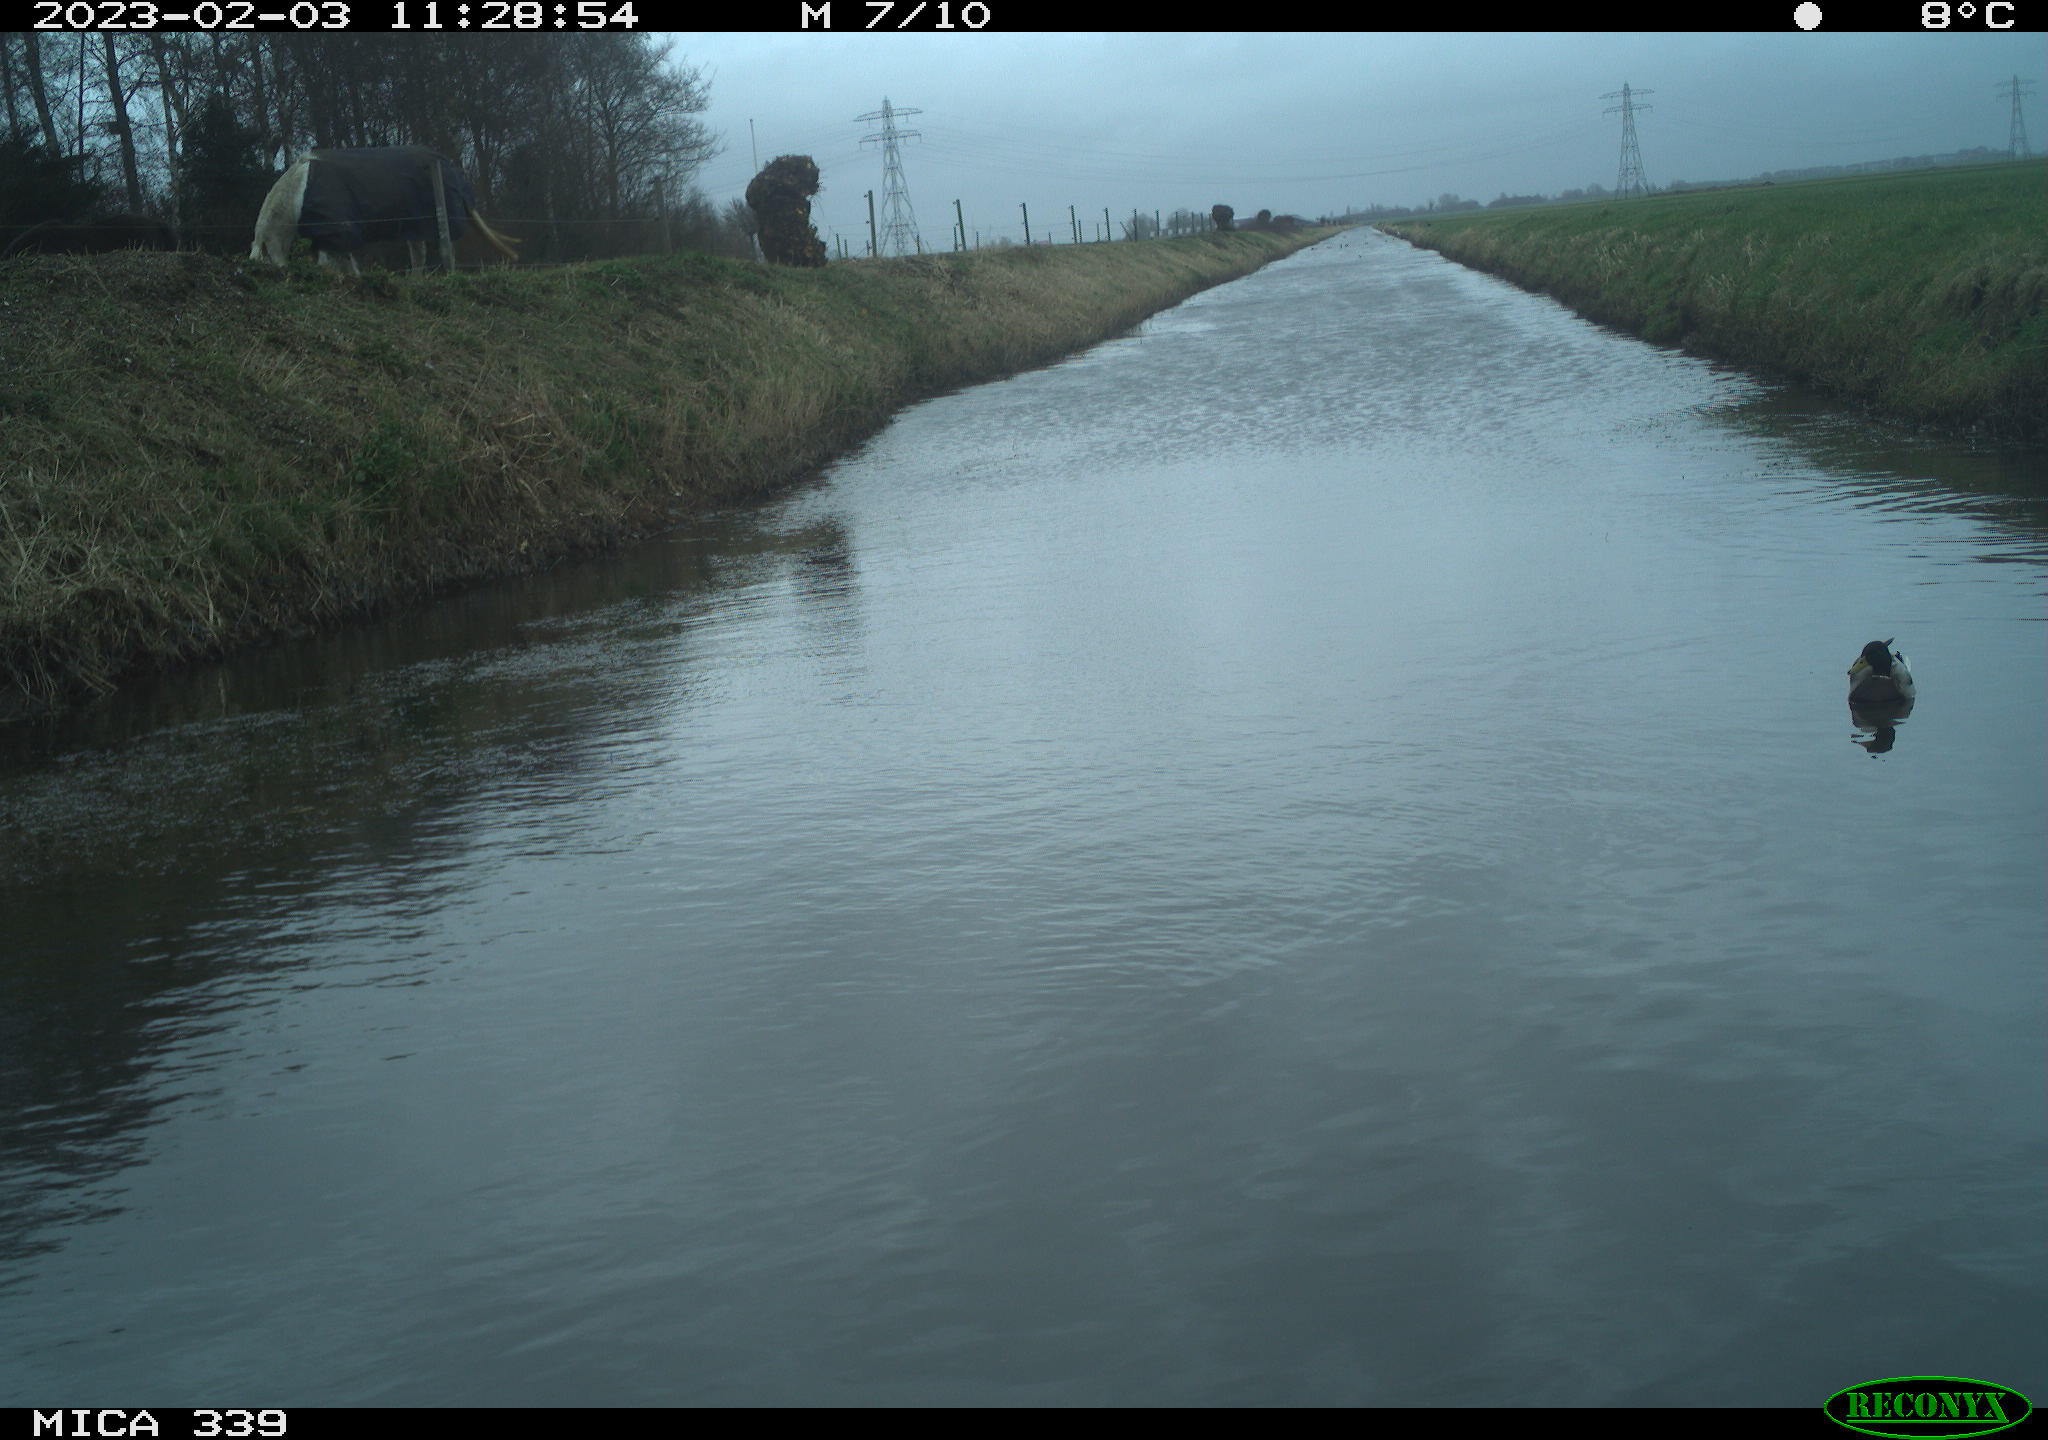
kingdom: Animalia
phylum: Chordata
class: Aves
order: Anseriformes
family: Anatidae
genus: Anas
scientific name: Anas
